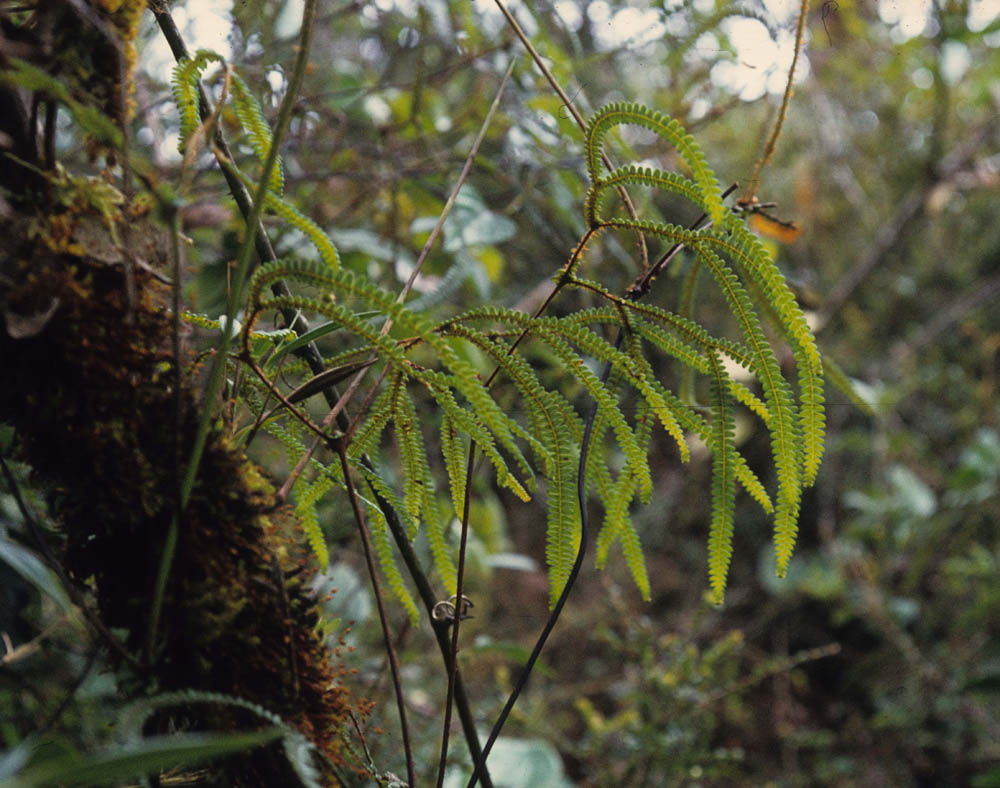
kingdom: Plantae
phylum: Tracheophyta
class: Polypodiopsida
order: Gleicheniales
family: Gleicheniaceae
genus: Sticherus
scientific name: Sticherus revolutus
